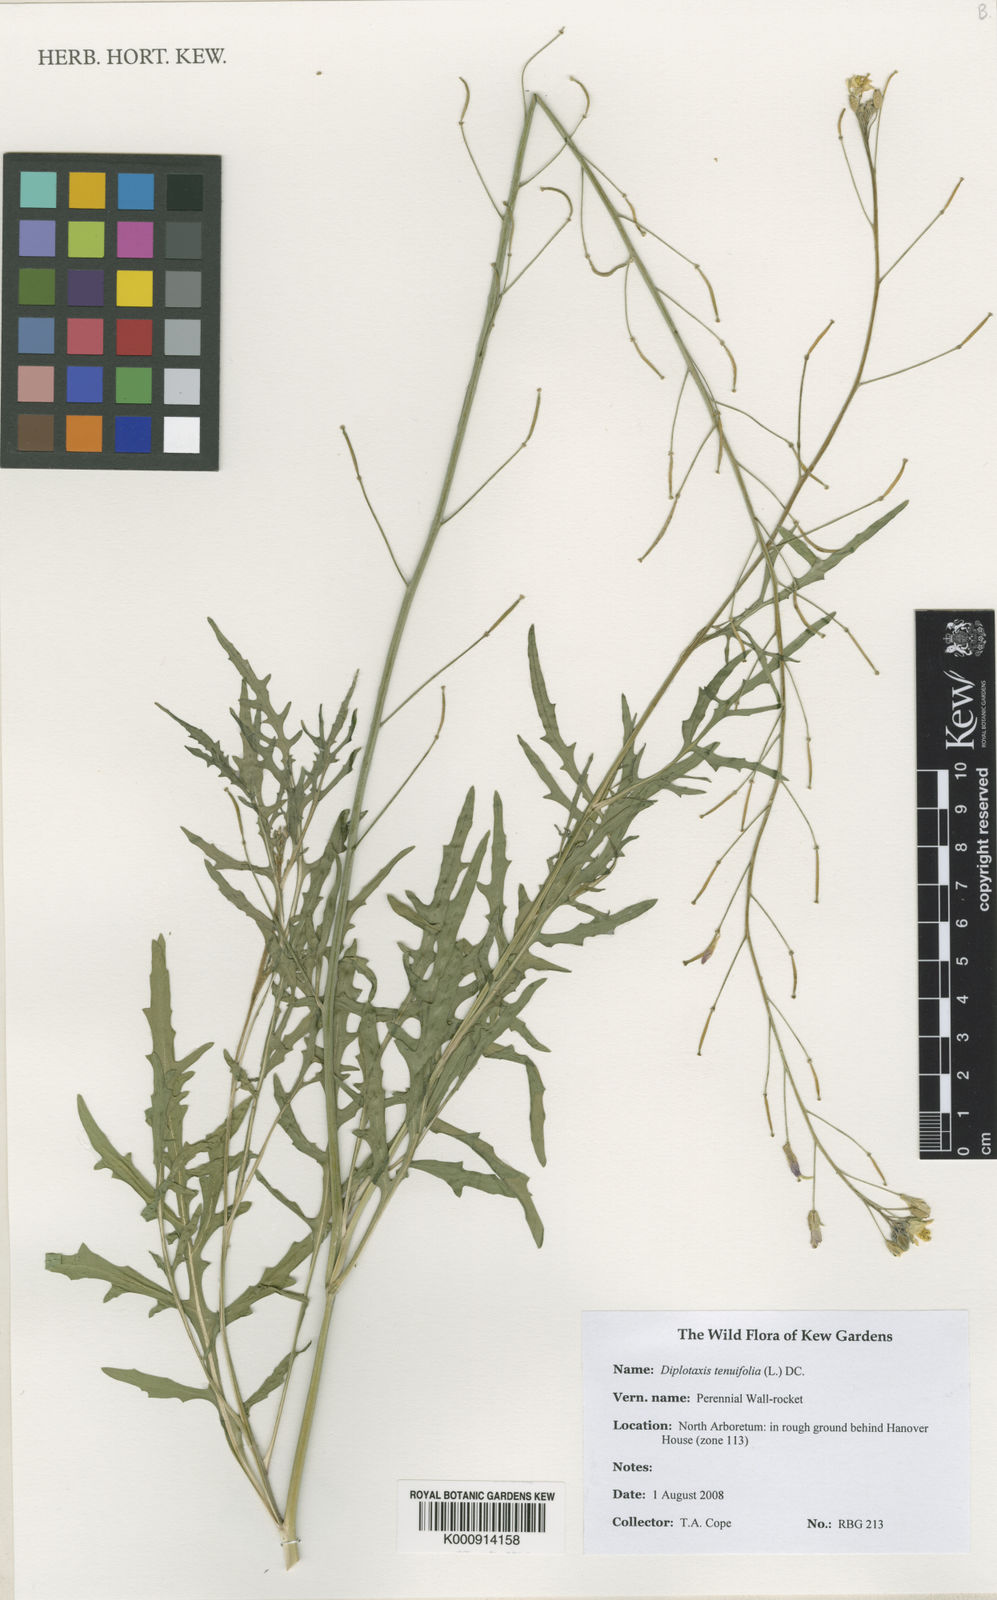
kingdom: Plantae
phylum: Tracheophyta
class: Magnoliopsida
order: Brassicales
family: Brassicaceae
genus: Diplotaxis
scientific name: Diplotaxis tenuifolia
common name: Perennial wall-rocket
